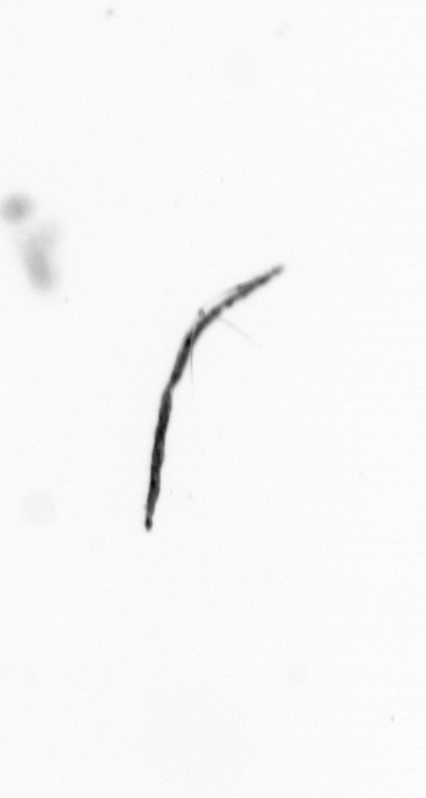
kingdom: Bacteria
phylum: Cyanobacteria
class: Cyanobacteriia
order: Cyanobacteriales
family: Microcoleaceae
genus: Trichodesmium
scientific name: Trichodesmium
